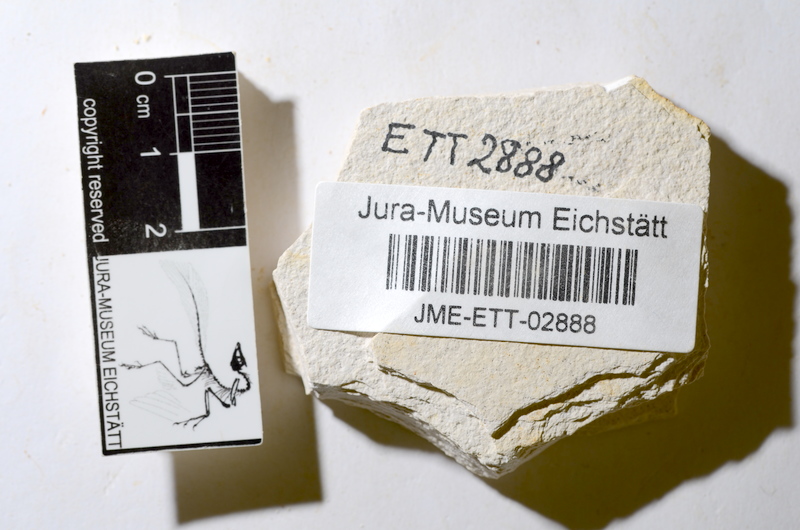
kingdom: Animalia
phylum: Chordata
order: Salmoniformes
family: Orthogonikleithridae
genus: Orthogonikleithrus
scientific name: Orthogonikleithrus hoelli
